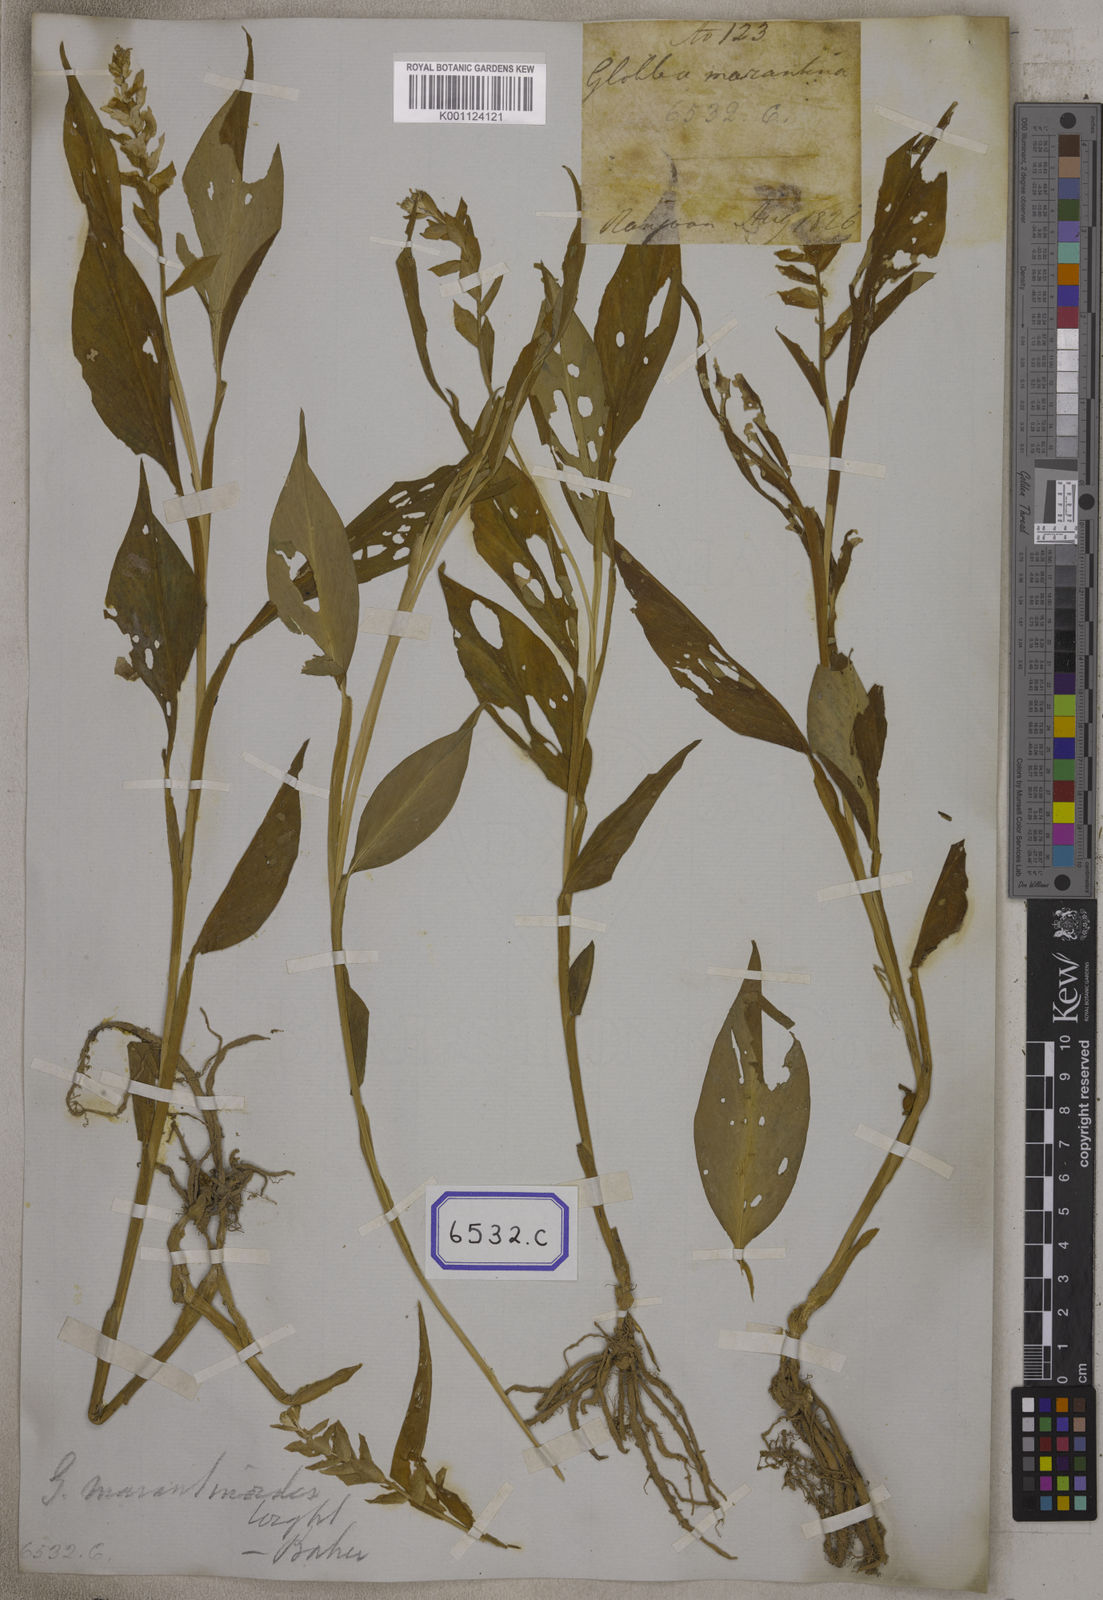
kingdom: Plantae
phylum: Tracheophyta
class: Liliopsida
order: Zingiberales
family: Zingiberaceae
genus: Globba
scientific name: Globba marantina
